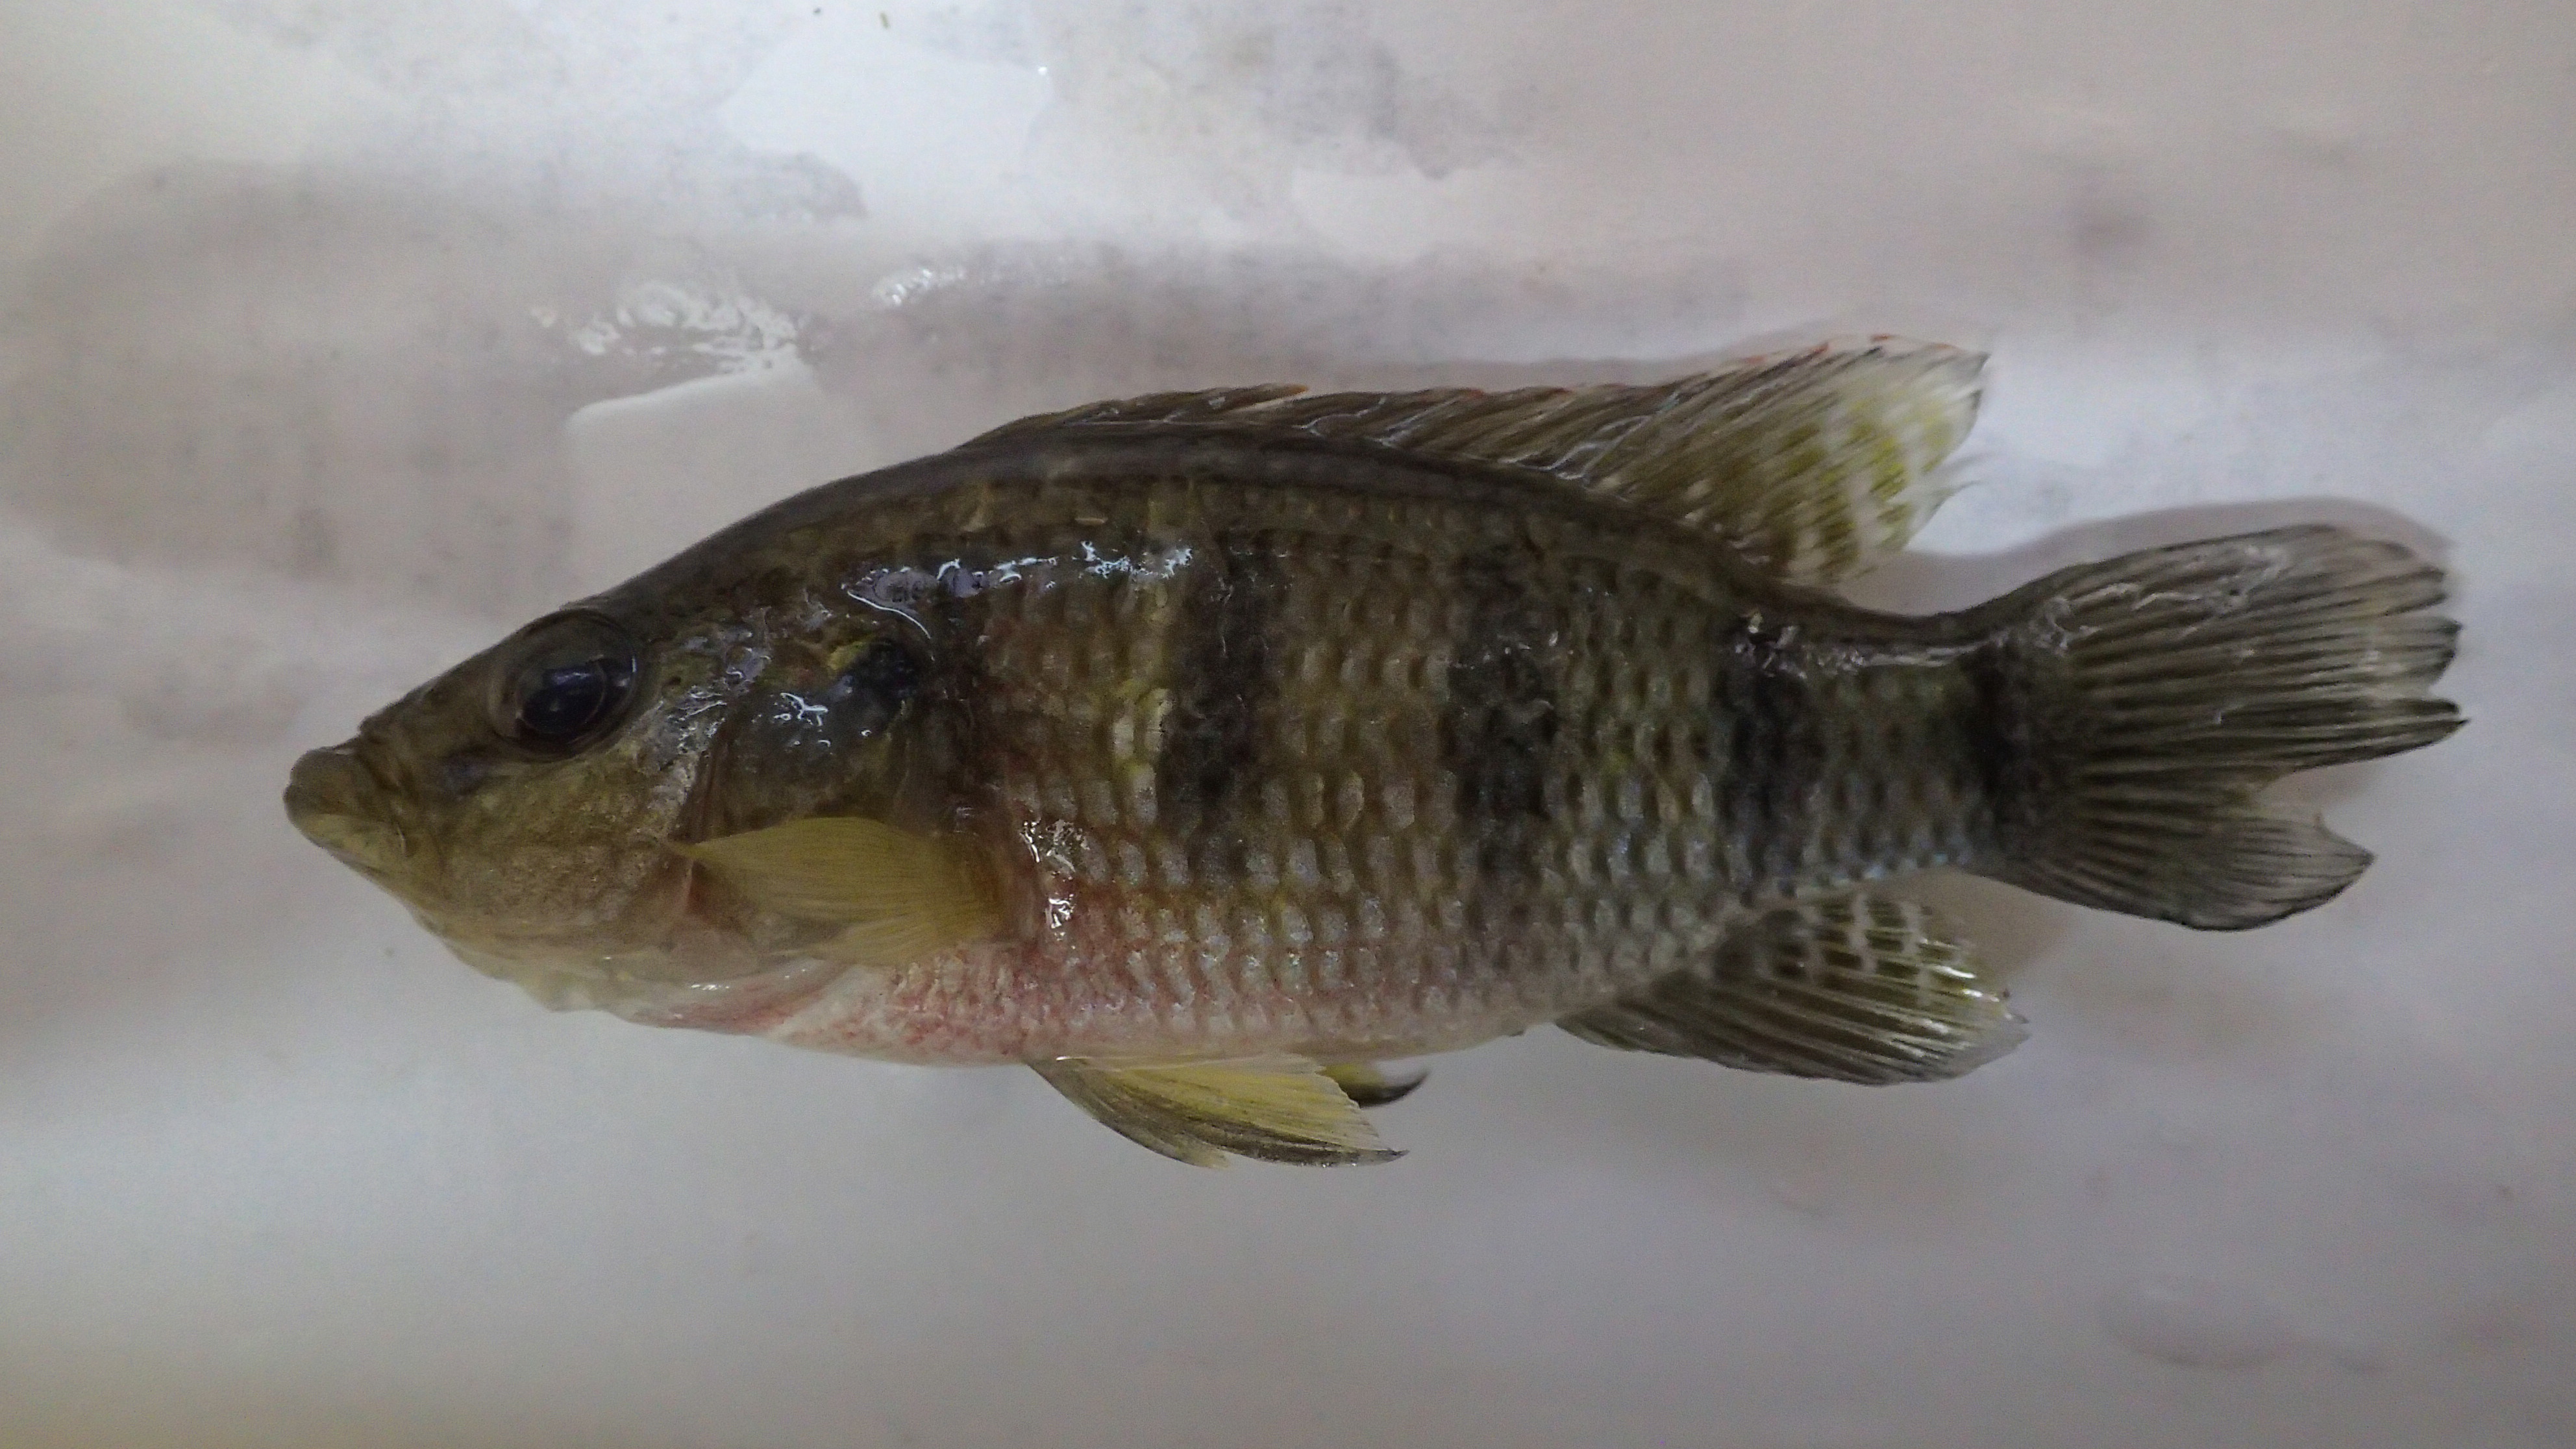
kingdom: Animalia
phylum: Chordata
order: Perciformes
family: Cichlidae
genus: Hemichromis
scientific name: Hemichromis fasciatus
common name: Banded jewelfish
